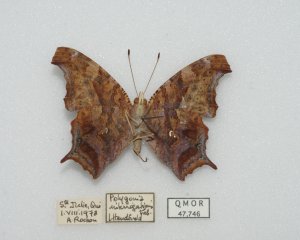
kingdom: Animalia
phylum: Arthropoda
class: Insecta
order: Lepidoptera
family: Nymphalidae
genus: Polygonia
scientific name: Polygonia interrogationis
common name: Question Mark
